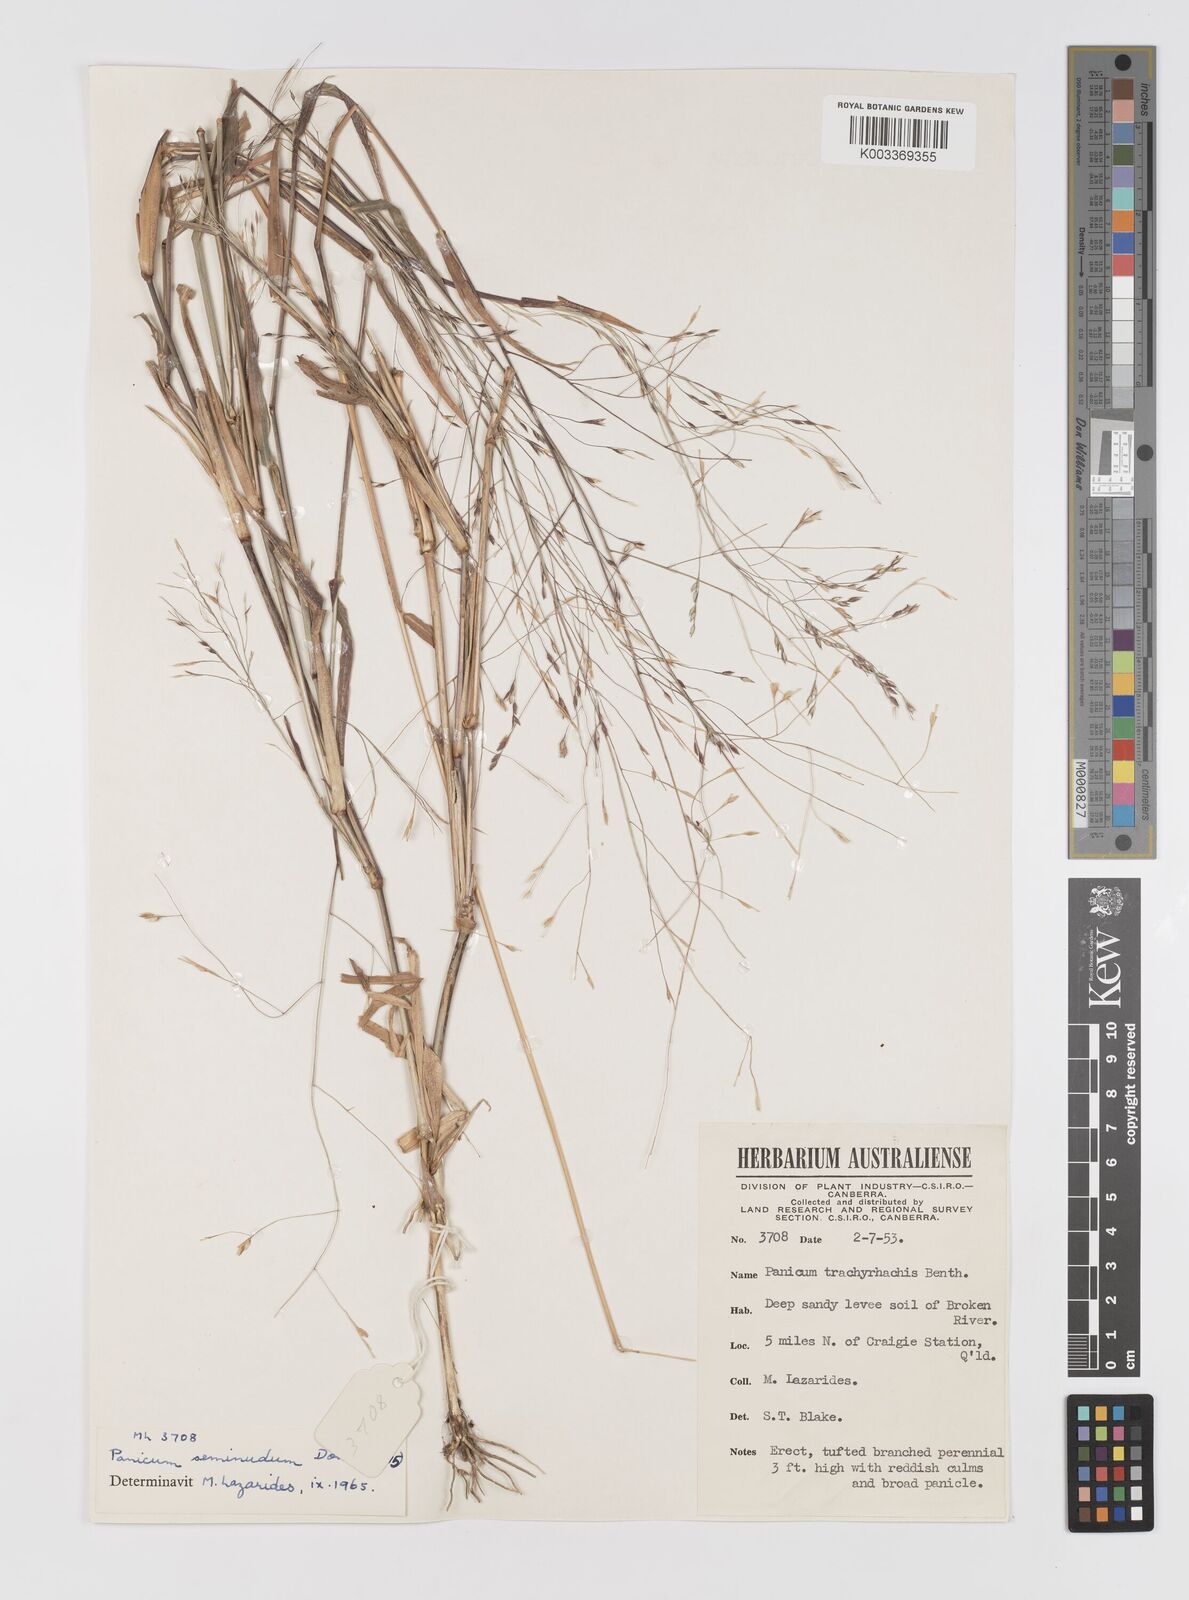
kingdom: Plantae
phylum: Tracheophyta
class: Liliopsida
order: Poales
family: Poaceae
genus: Panicum
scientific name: Panicum seminudum
